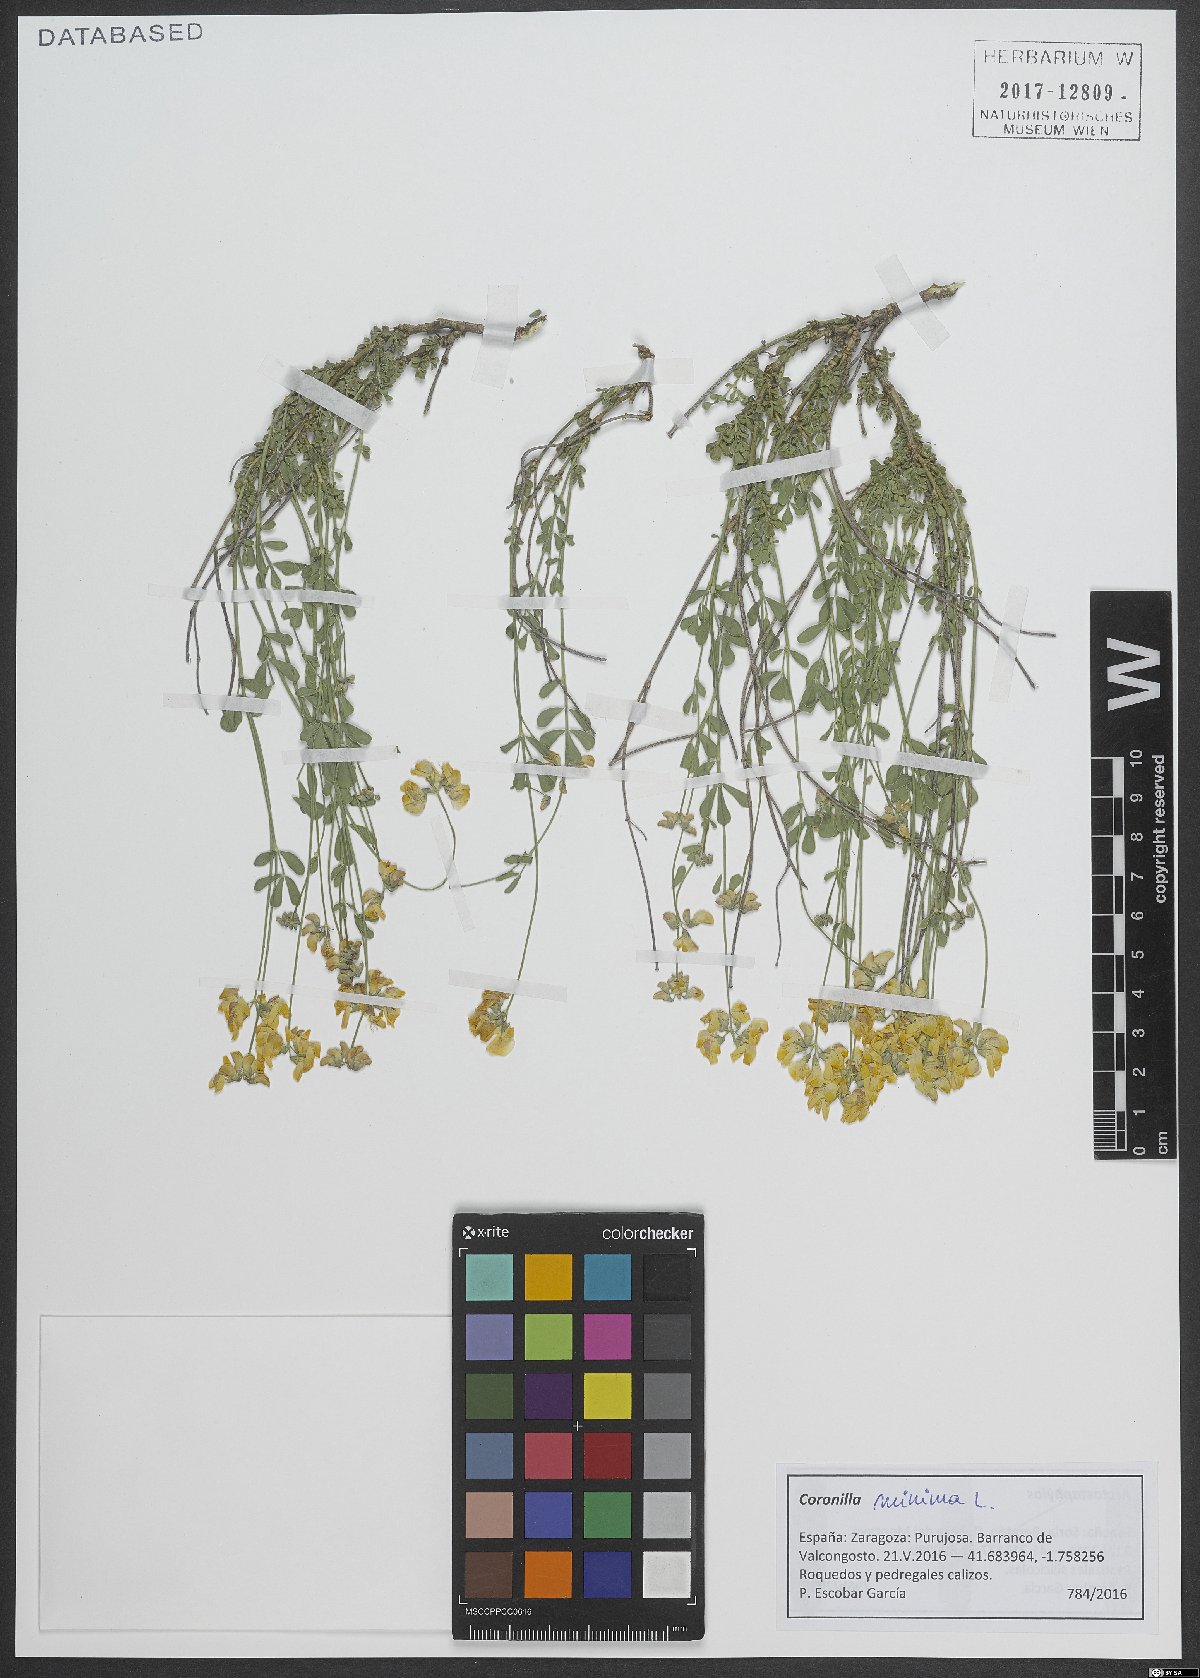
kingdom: Plantae
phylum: Tracheophyta
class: Magnoliopsida
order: Fabales
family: Fabaceae
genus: Coronilla
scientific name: Coronilla minima
